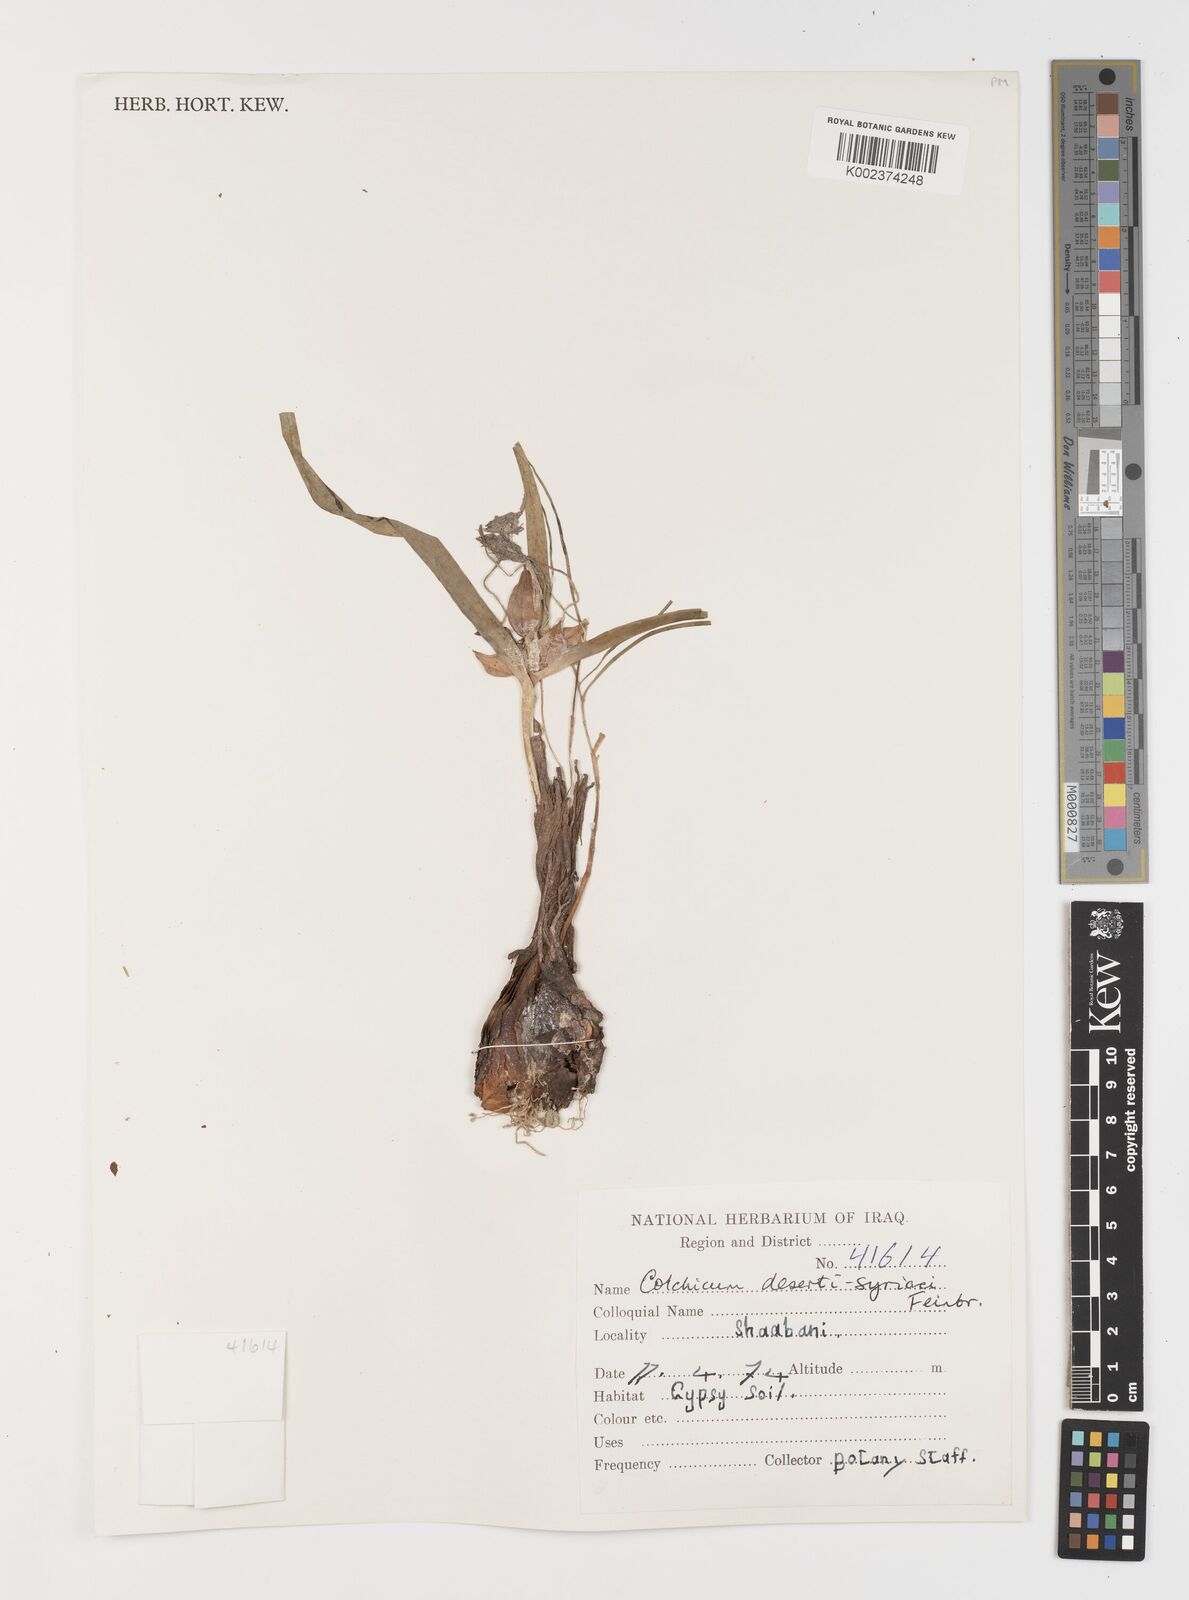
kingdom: Plantae
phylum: Tracheophyta
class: Liliopsida
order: Liliales
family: Colchicaceae
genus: Colchicum
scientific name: Colchicum schimperi
